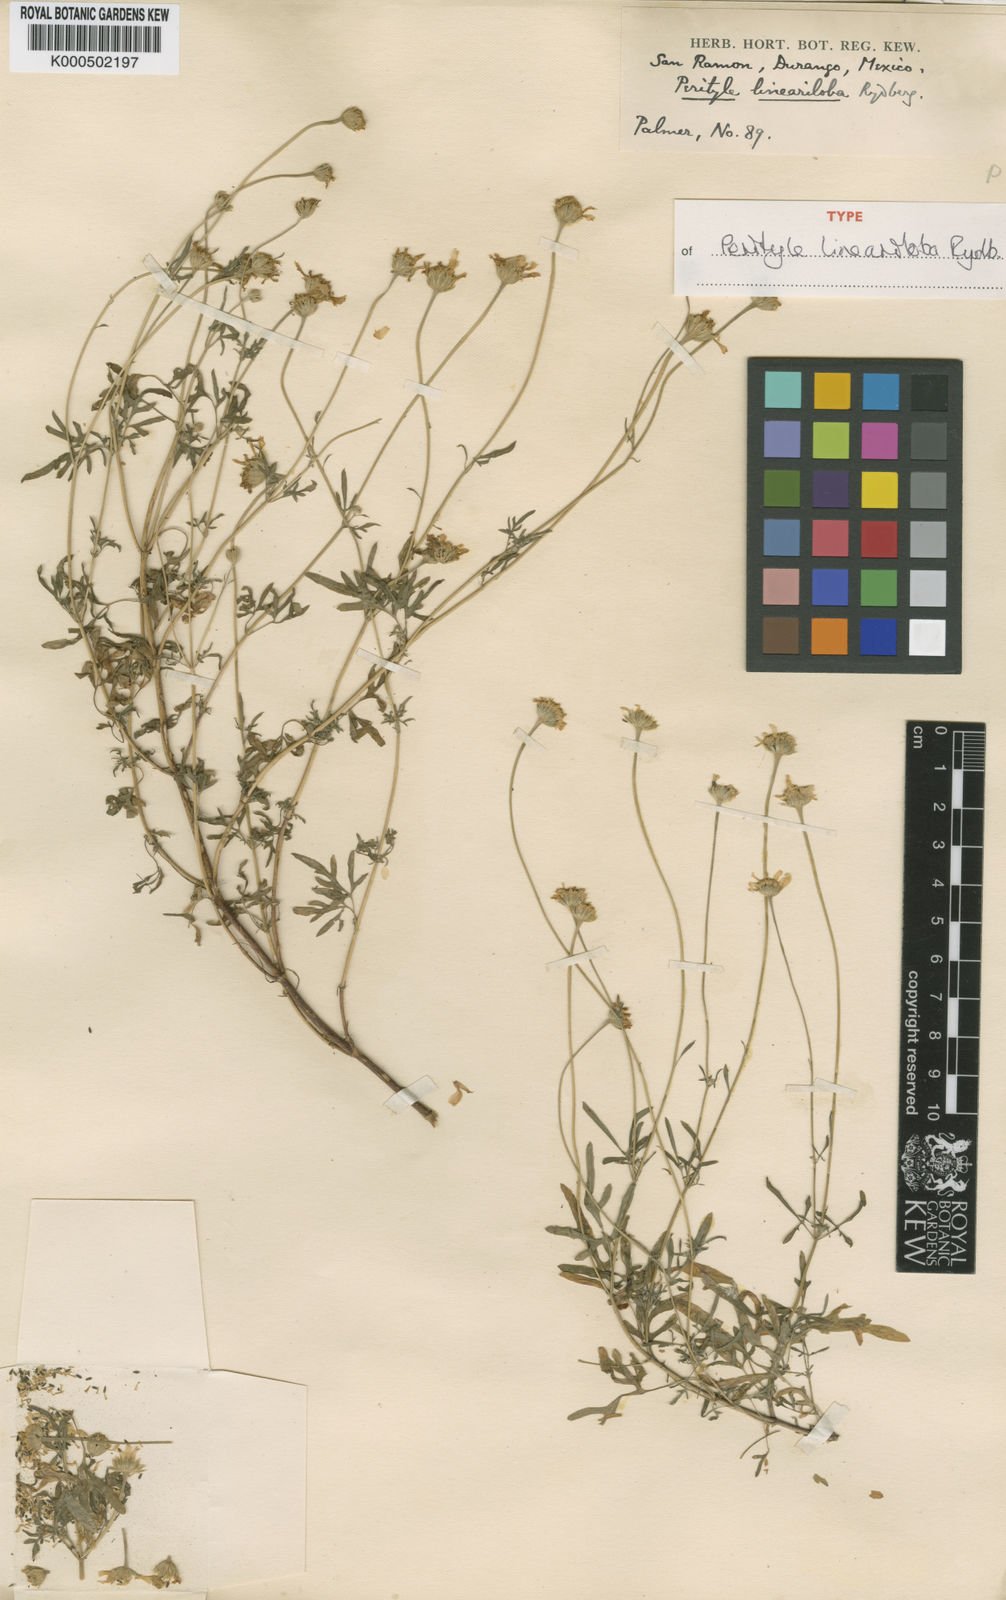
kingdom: Plantae
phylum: Tracheophyta
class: Magnoliopsida
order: Asterales
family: Asteraceae
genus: Galinsogeopsis
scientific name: Galinsogeopsis lineariloba
